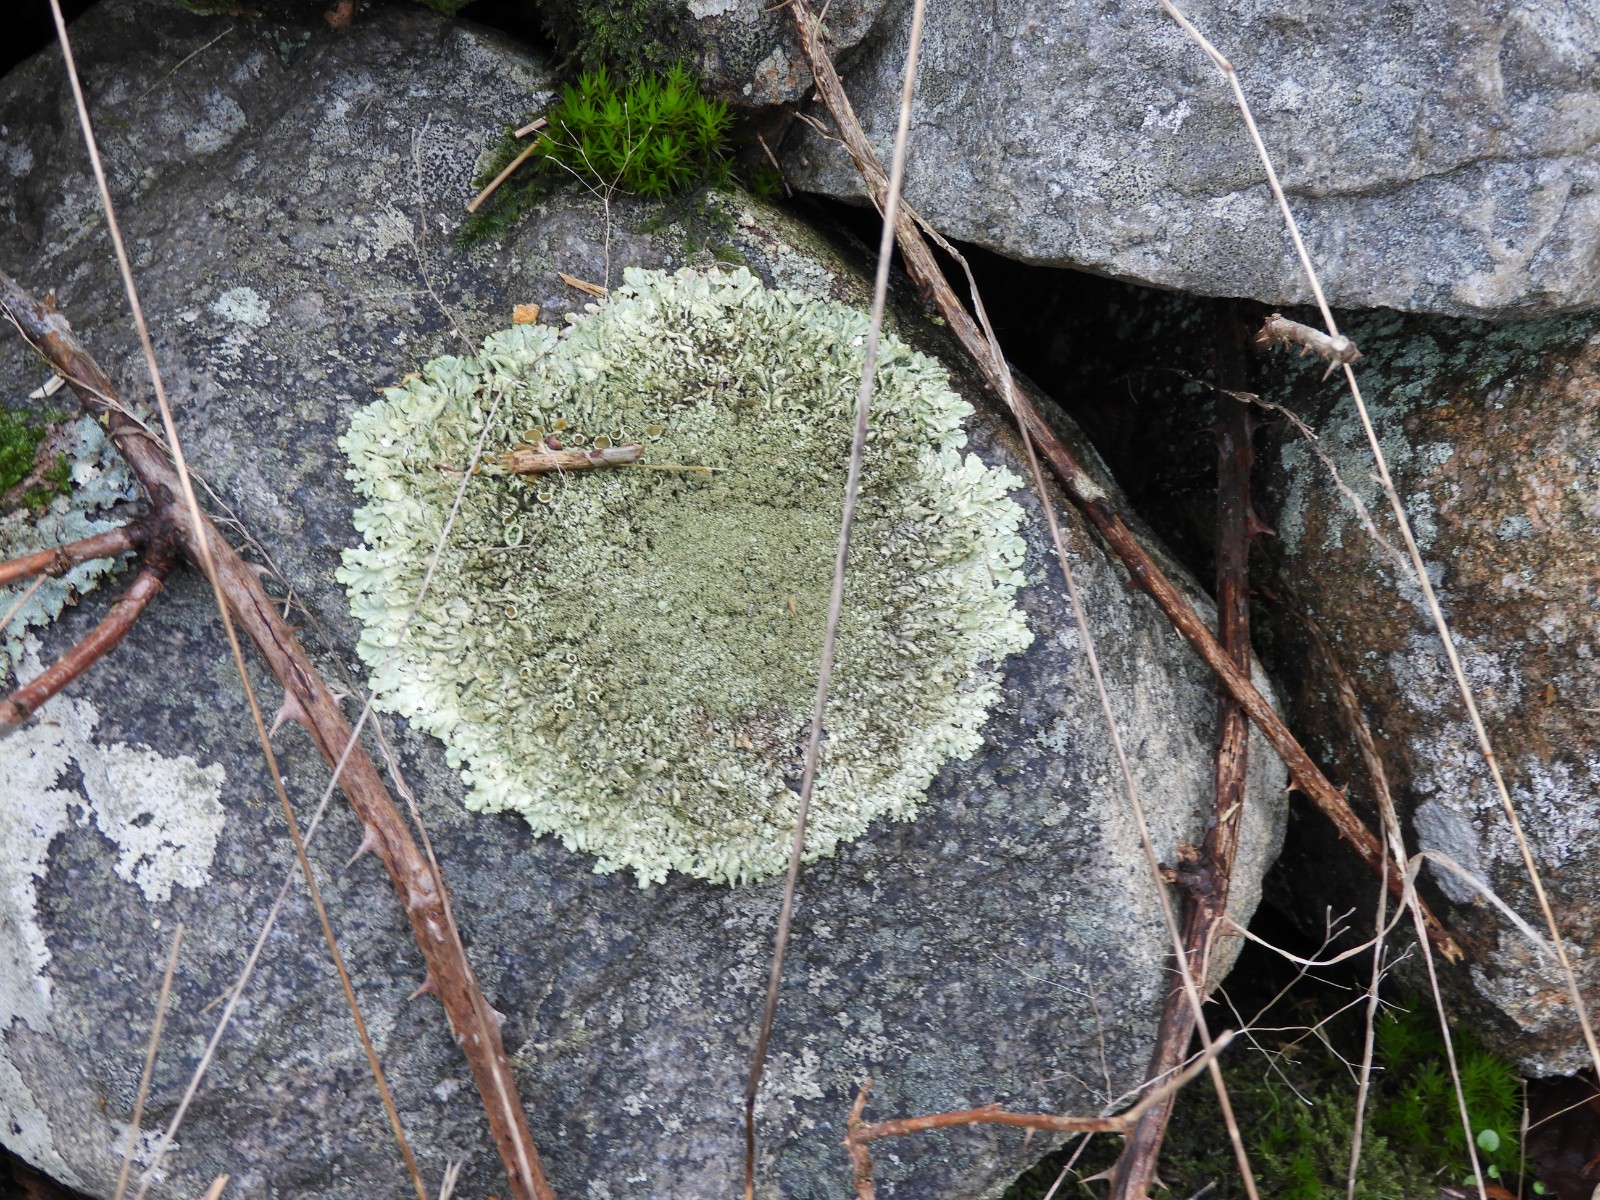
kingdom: Fungi
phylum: Ascomycota
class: Lecanoromycetes
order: Lecanorales
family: Parmeliaceae
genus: Xanthoparmelia
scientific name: Xanthoparmelia conspersa
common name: messing-skållav
